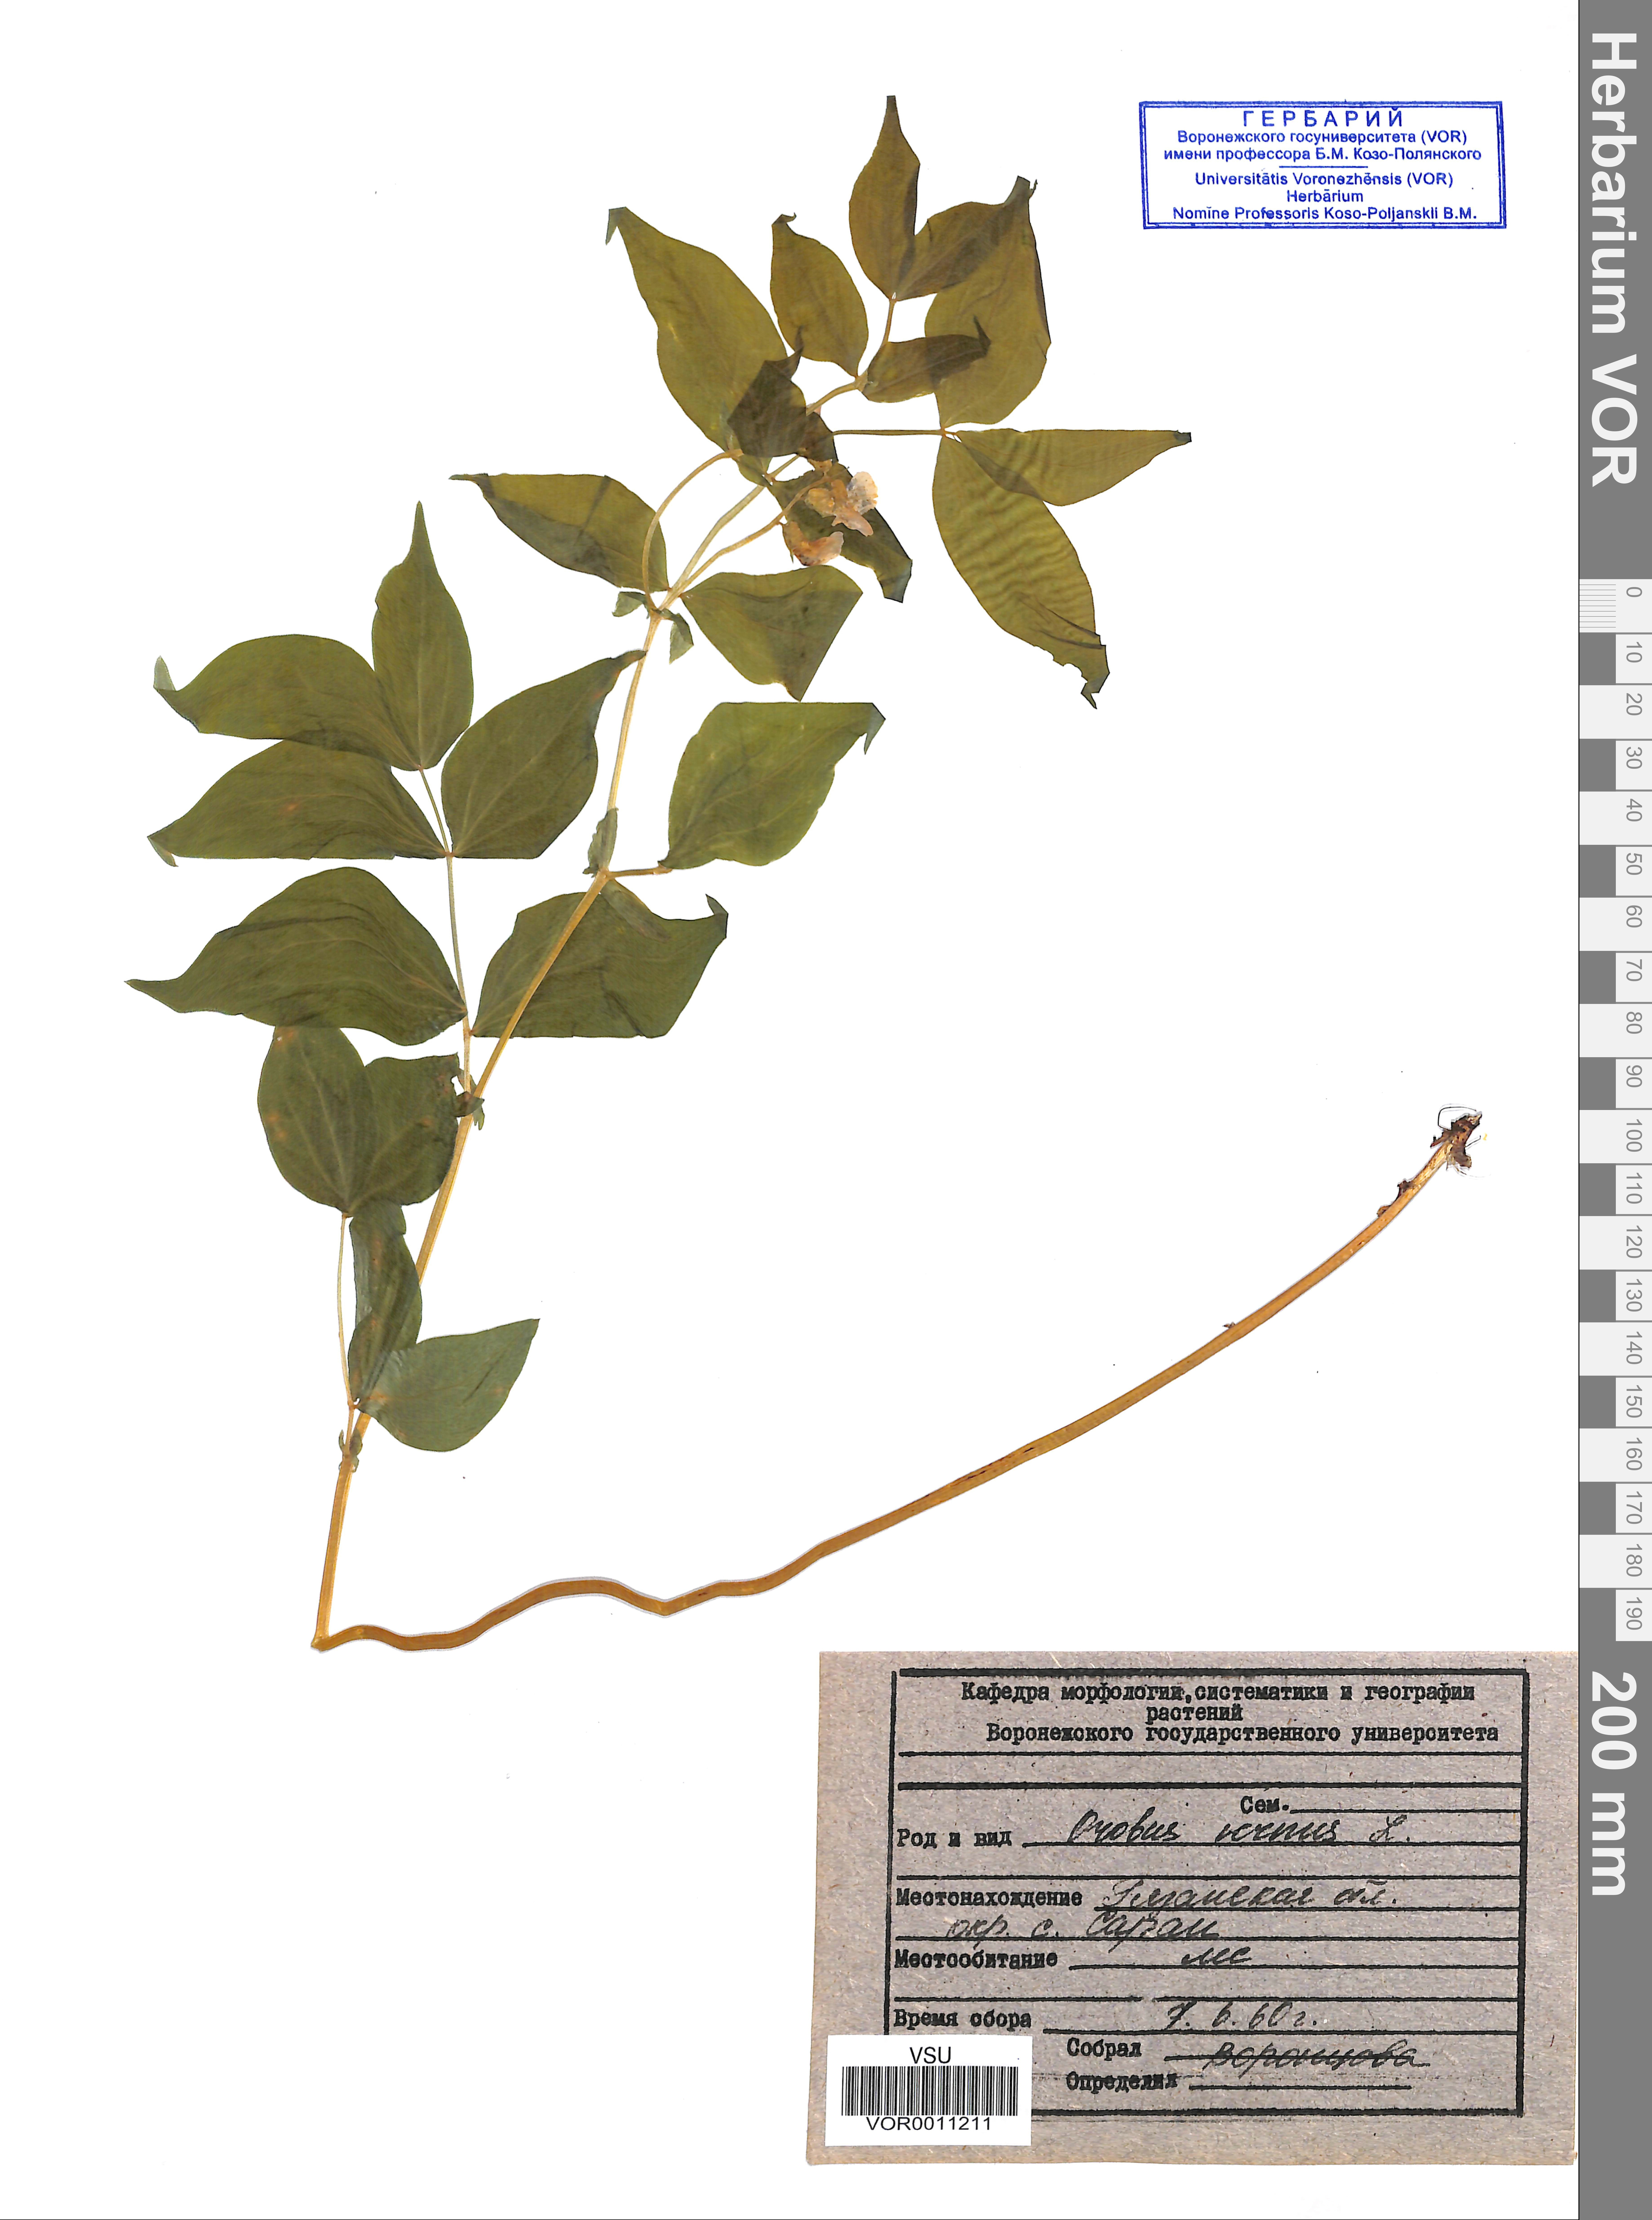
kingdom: Plantae
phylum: Tracheophyta
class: Magnoliopsida
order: Fabales
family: Fabaceae
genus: Lathyrus
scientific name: Lathyrus vernus
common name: Spring pea
